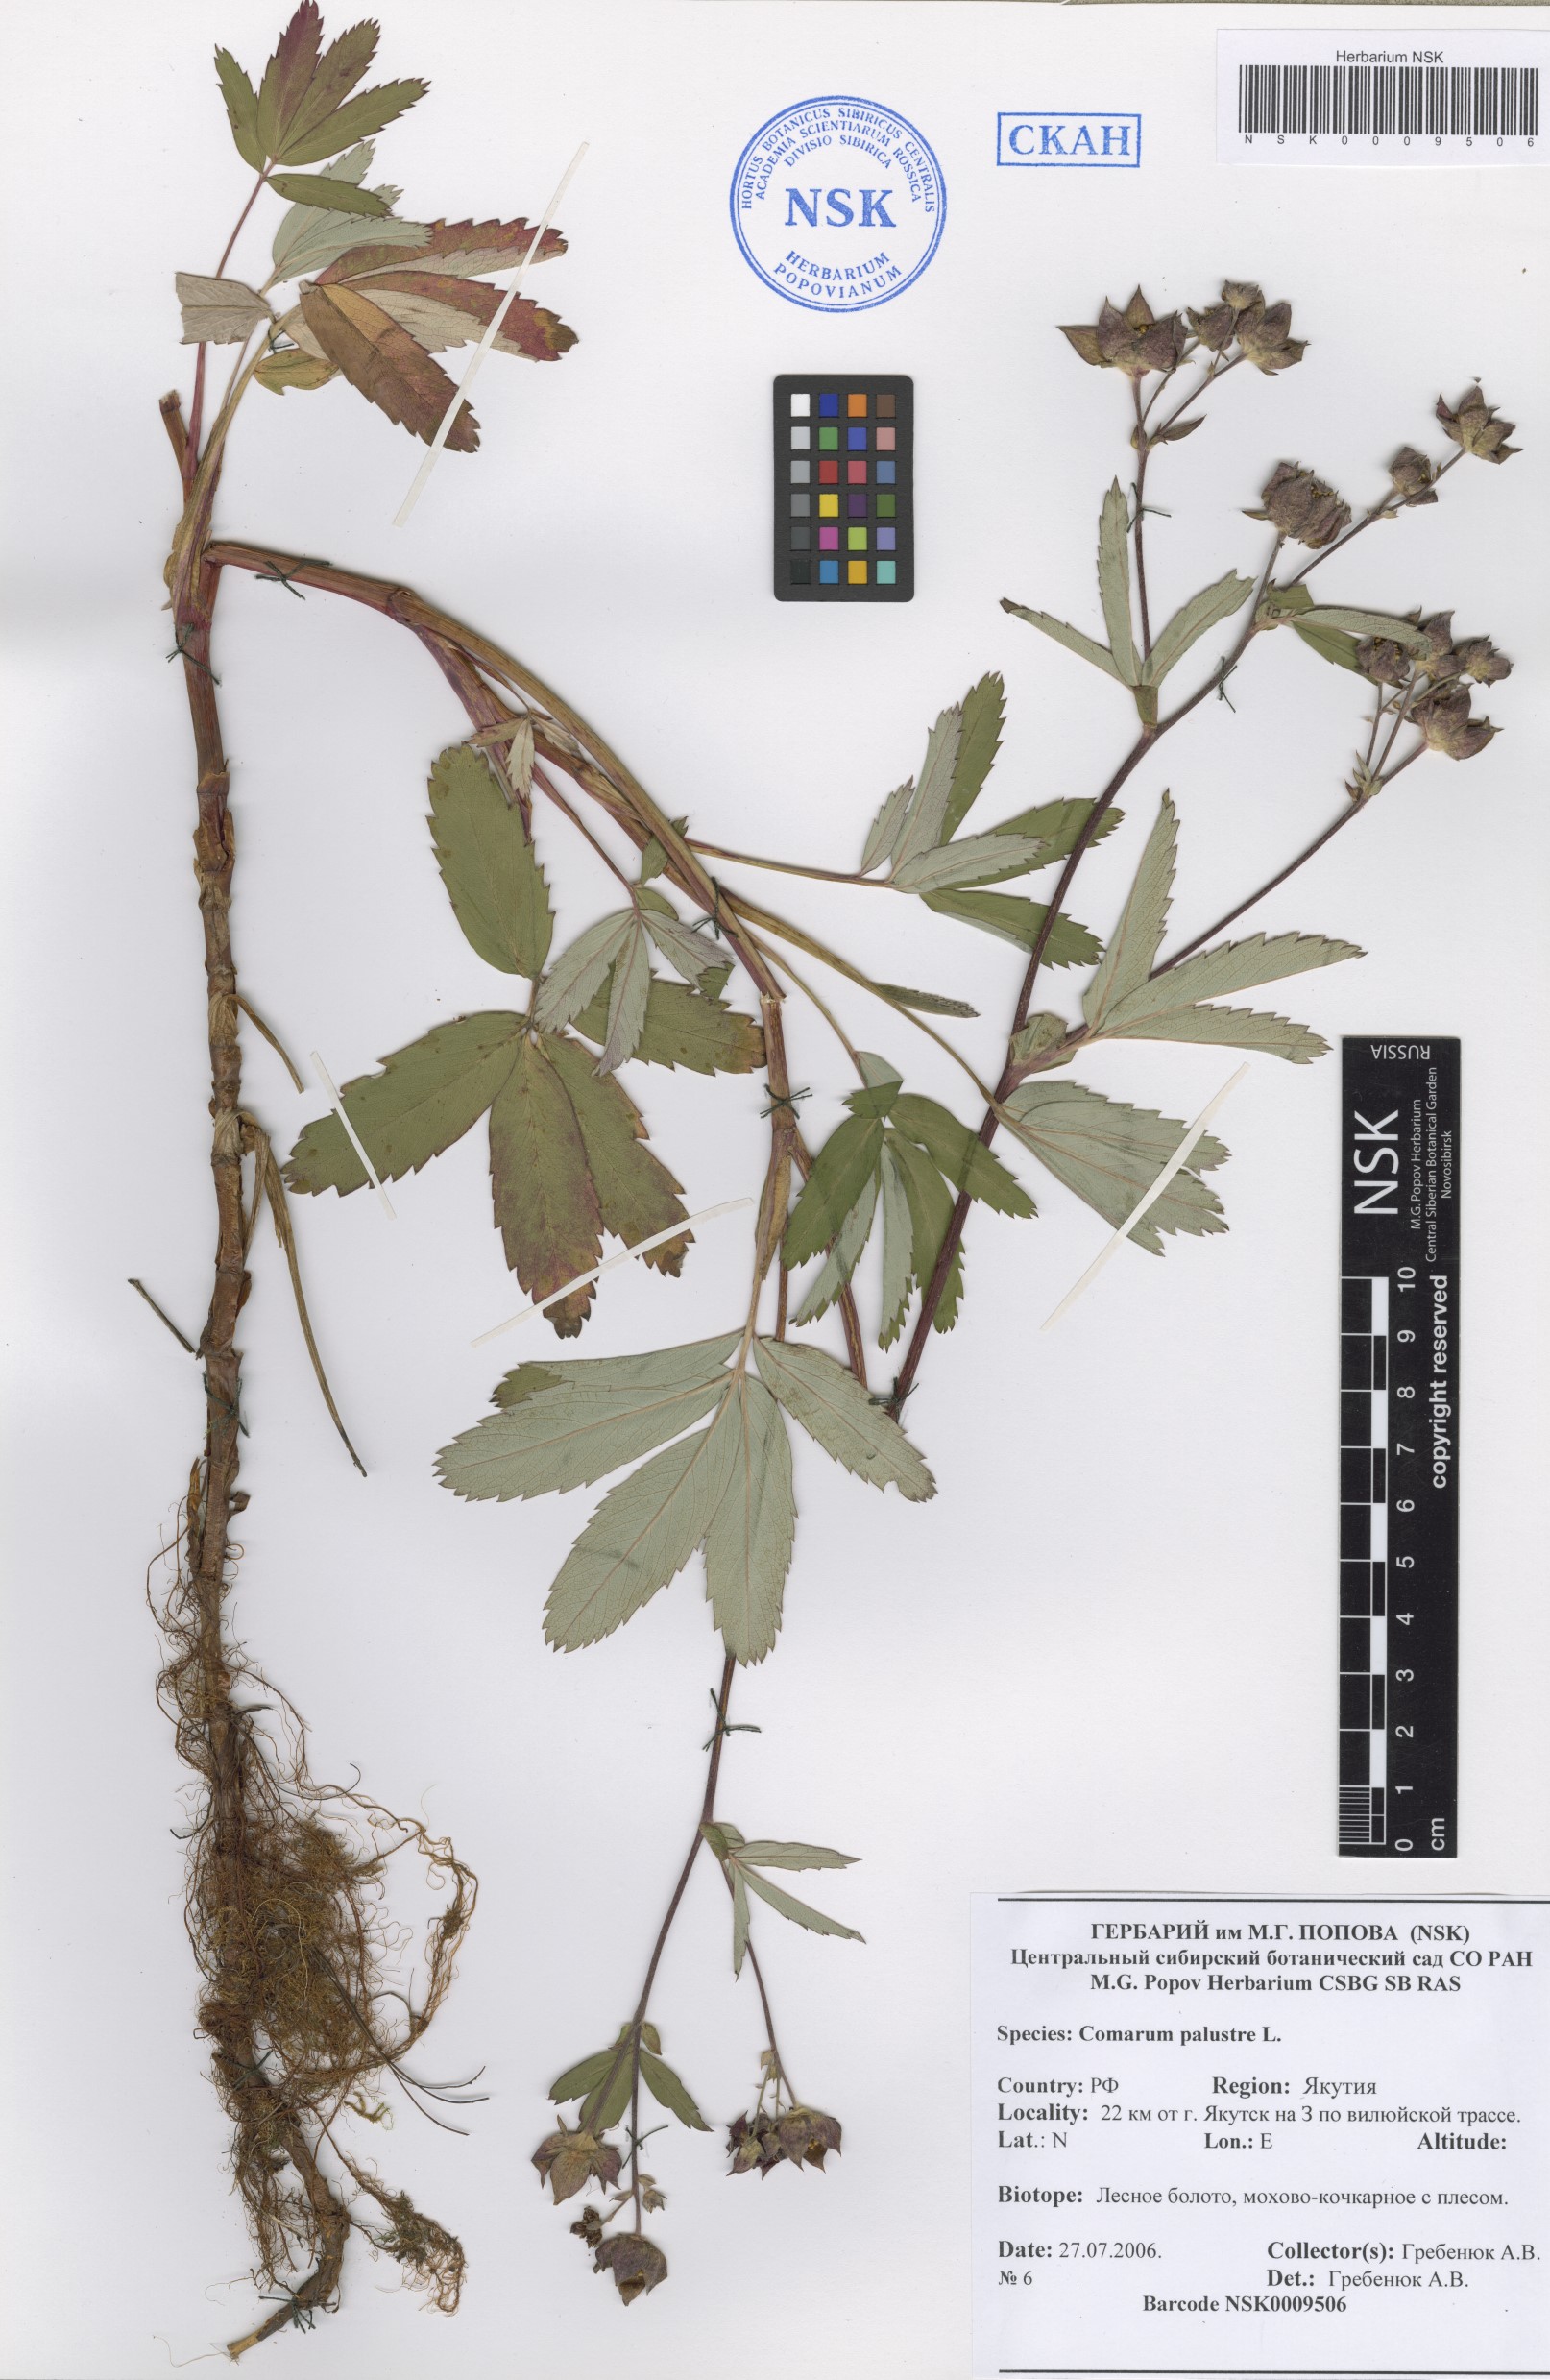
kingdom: Plantae
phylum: Tracheophyta
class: Magnoliopsida
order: Rosales
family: Rosaceae
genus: Comarum
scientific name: Comarum palustre
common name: Marsh cinquefoil
